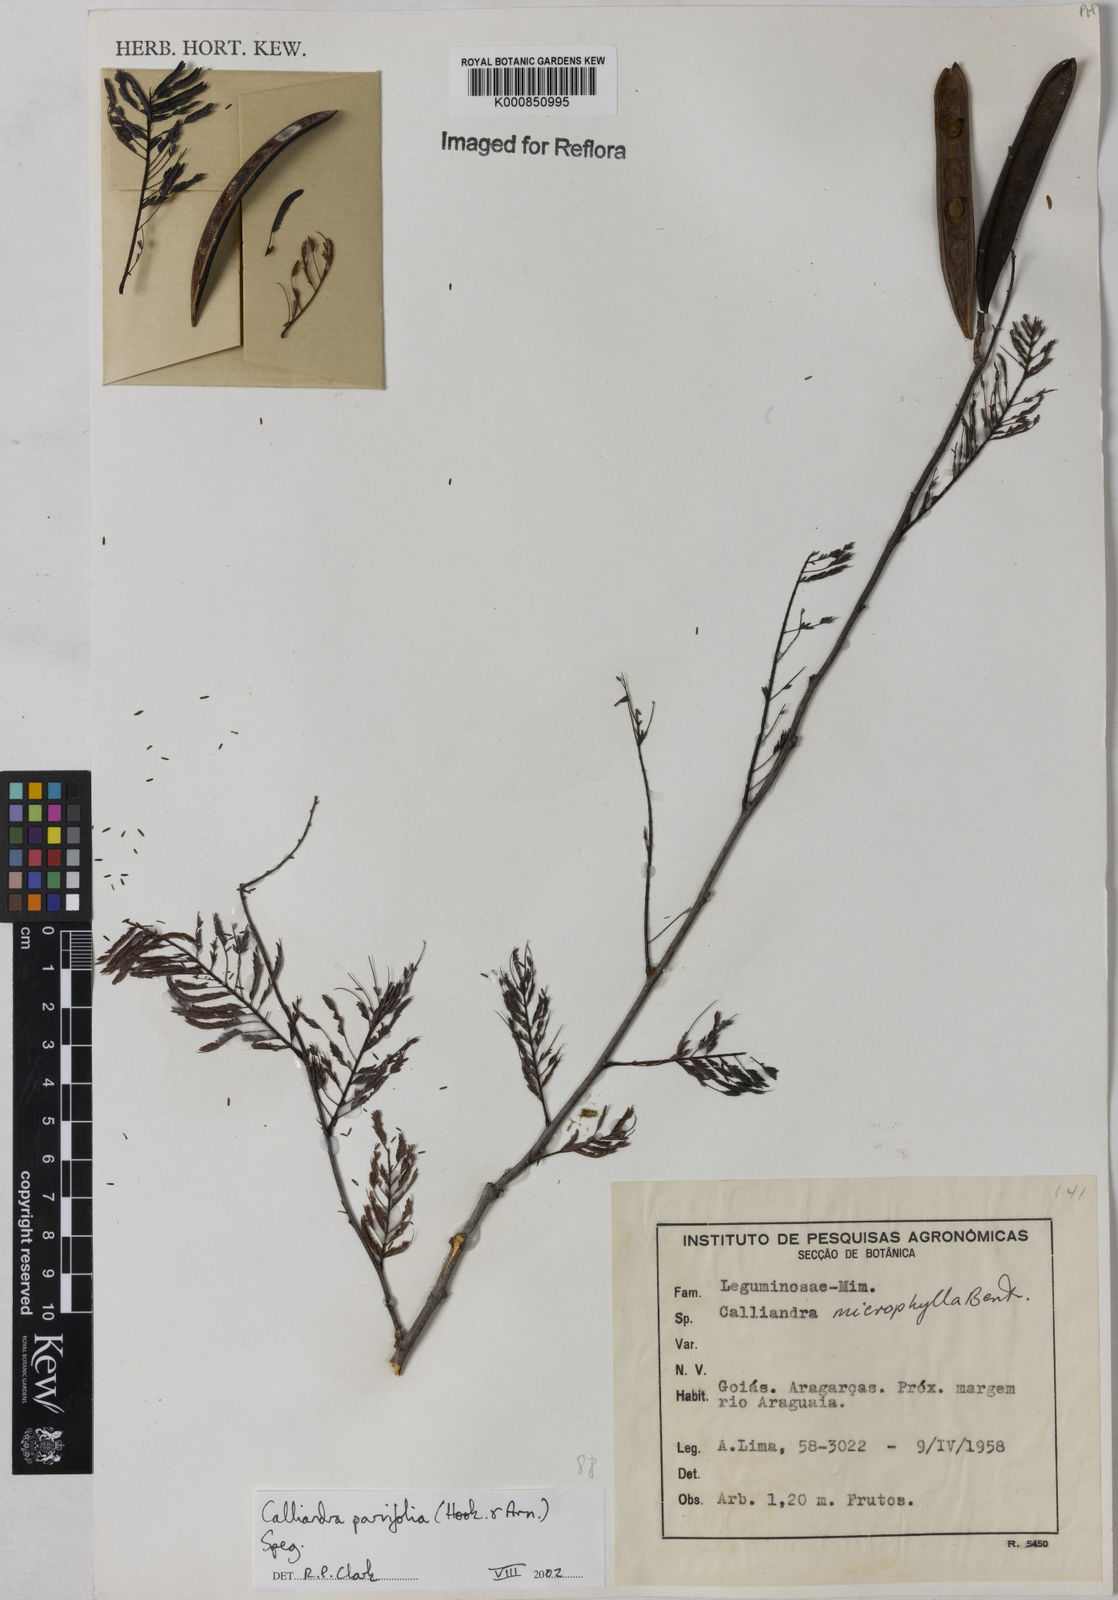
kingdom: Plantae
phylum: Tracheophyta
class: Magnoliopsida
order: Fabales
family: Fabaceae
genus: Calliandra
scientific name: Calliandra parvifolia
